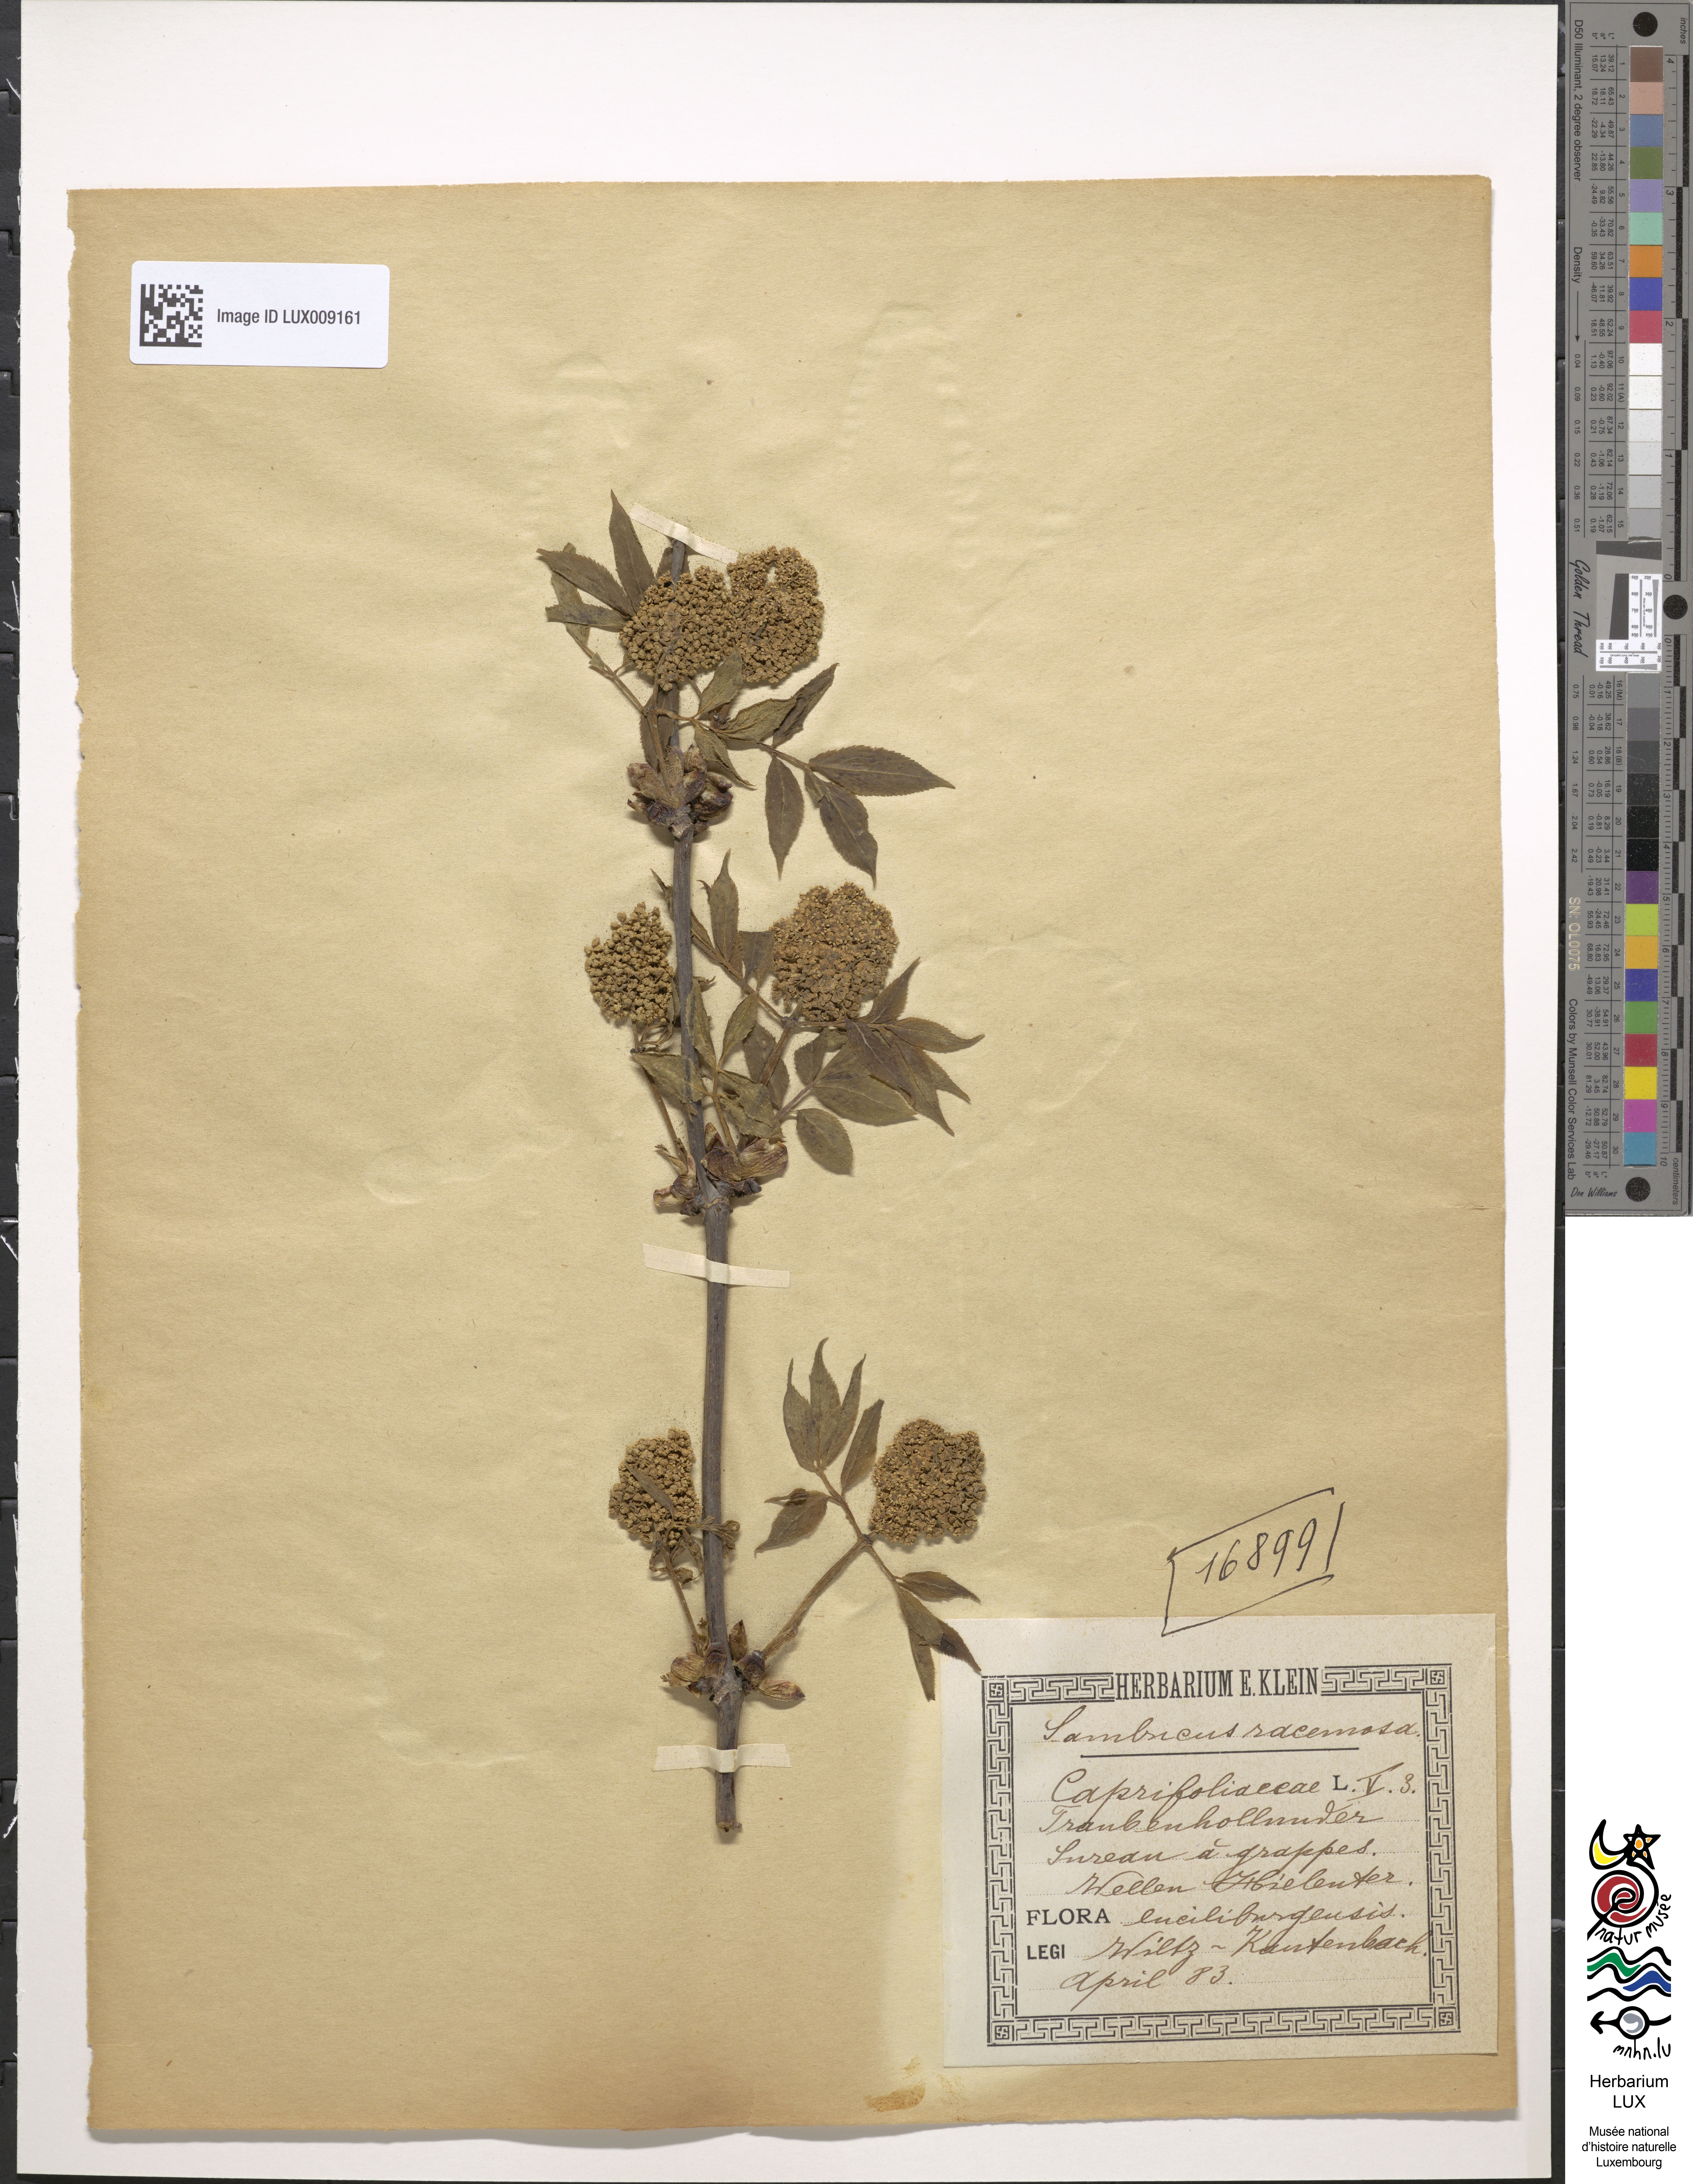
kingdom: Plantae
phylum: Tracheophyta
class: Magnoliopsida
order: Dipsacales
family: Viburnaceae
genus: Sambucus
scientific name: Sambucus racemosa
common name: Red-berried elder
